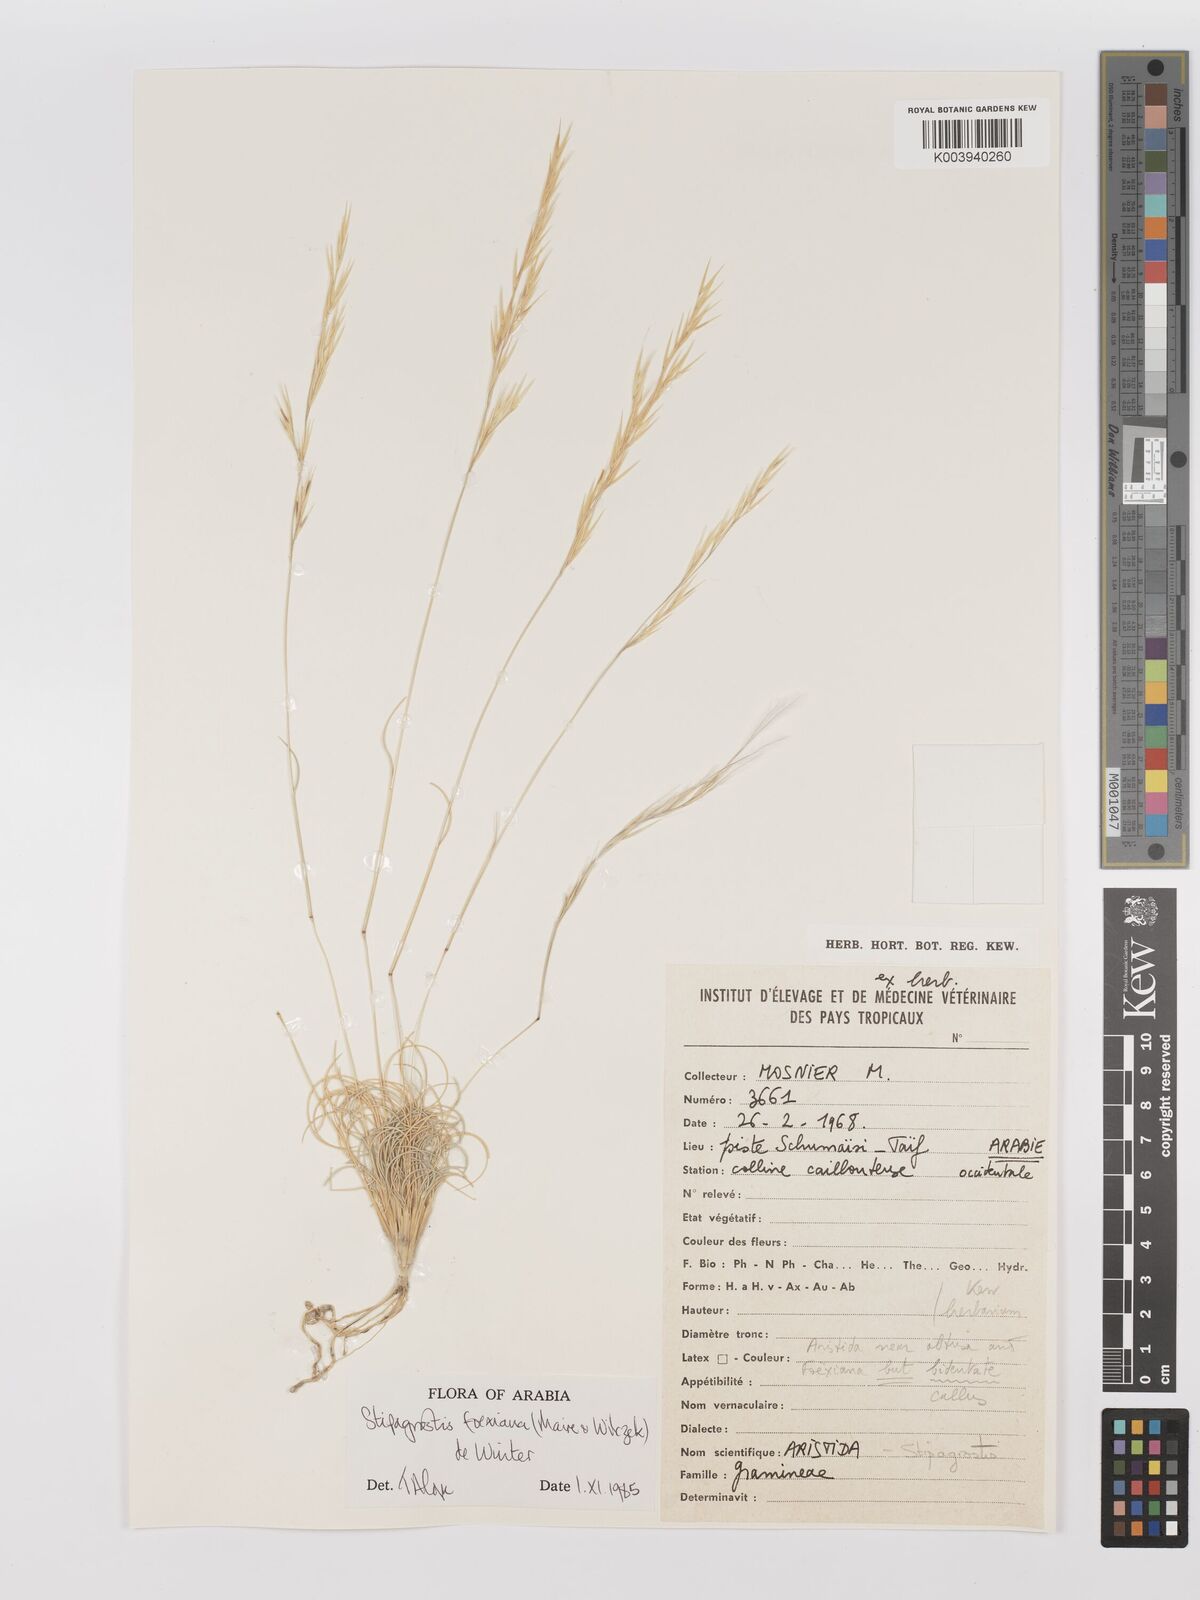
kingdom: Plantae
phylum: Tracheophyta
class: Liliopsida
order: Poales
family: Poaceae
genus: Stipagrostis
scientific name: Stipagrostis foexiana
